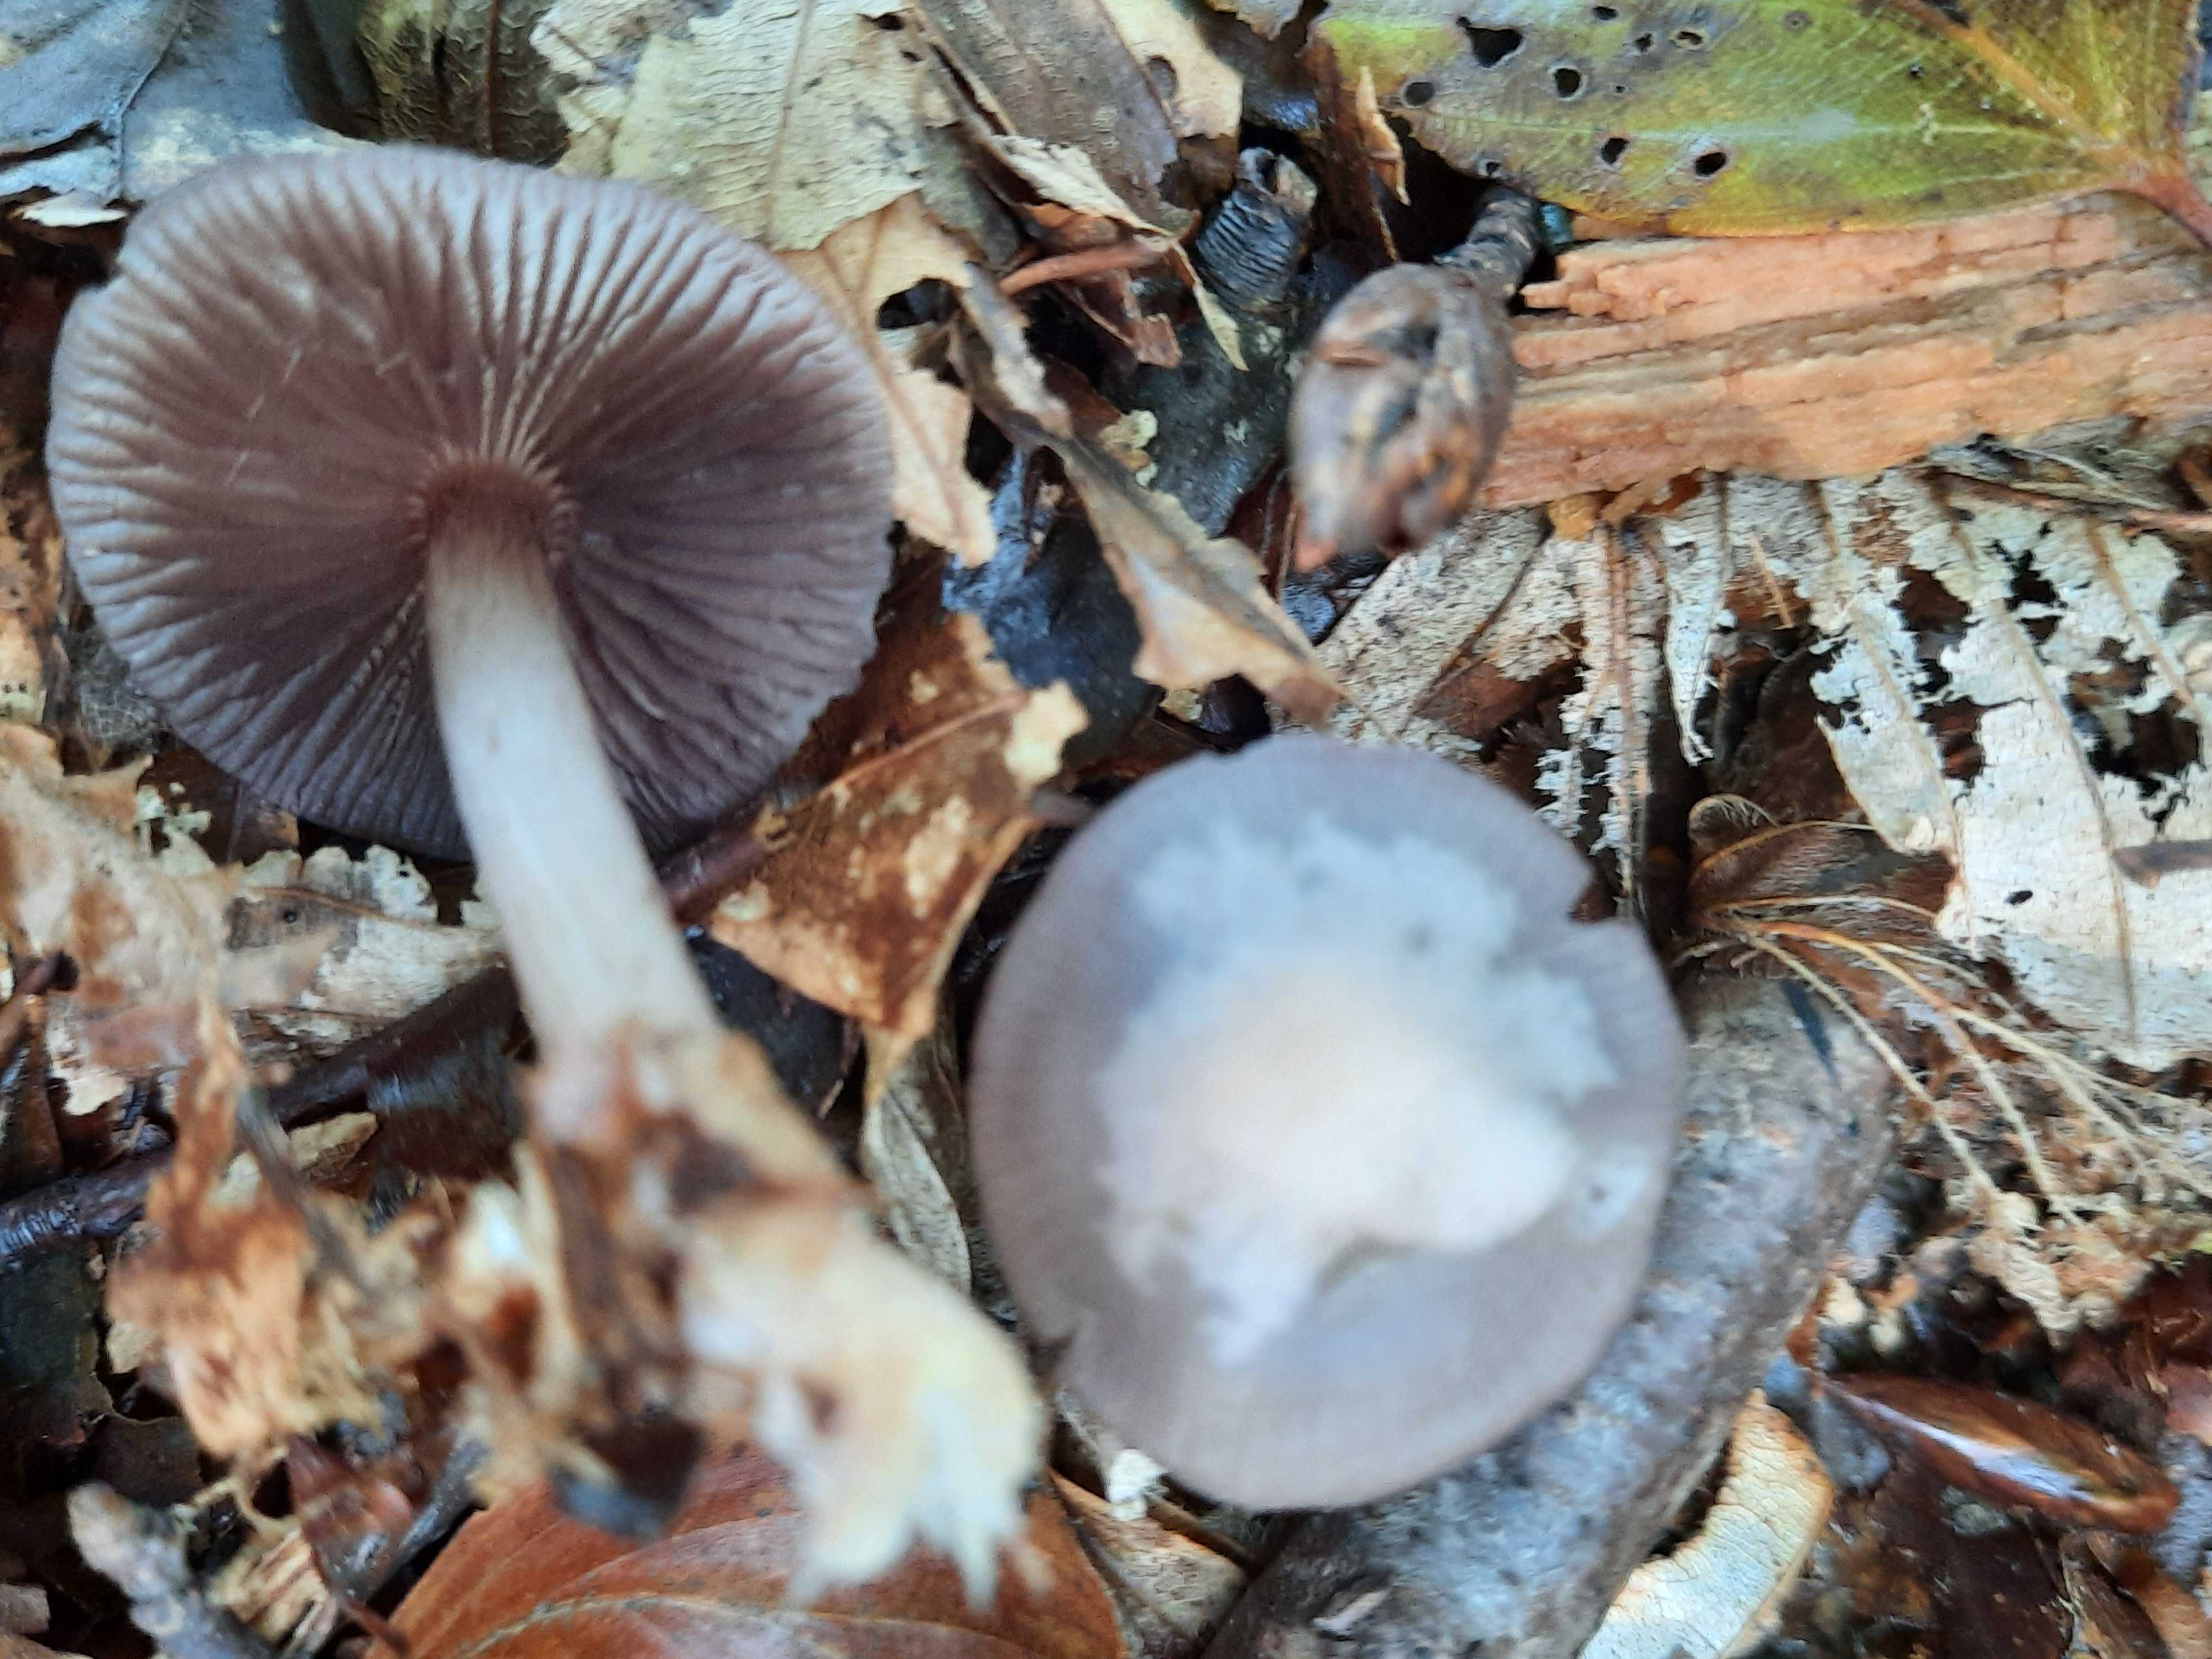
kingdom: Fungi
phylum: Basidiomycota
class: Agaricomycetes
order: Agaricales
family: Mycenaceae
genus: Mycena
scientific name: Mycena pelianthina
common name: mørkbladet huesvamp
